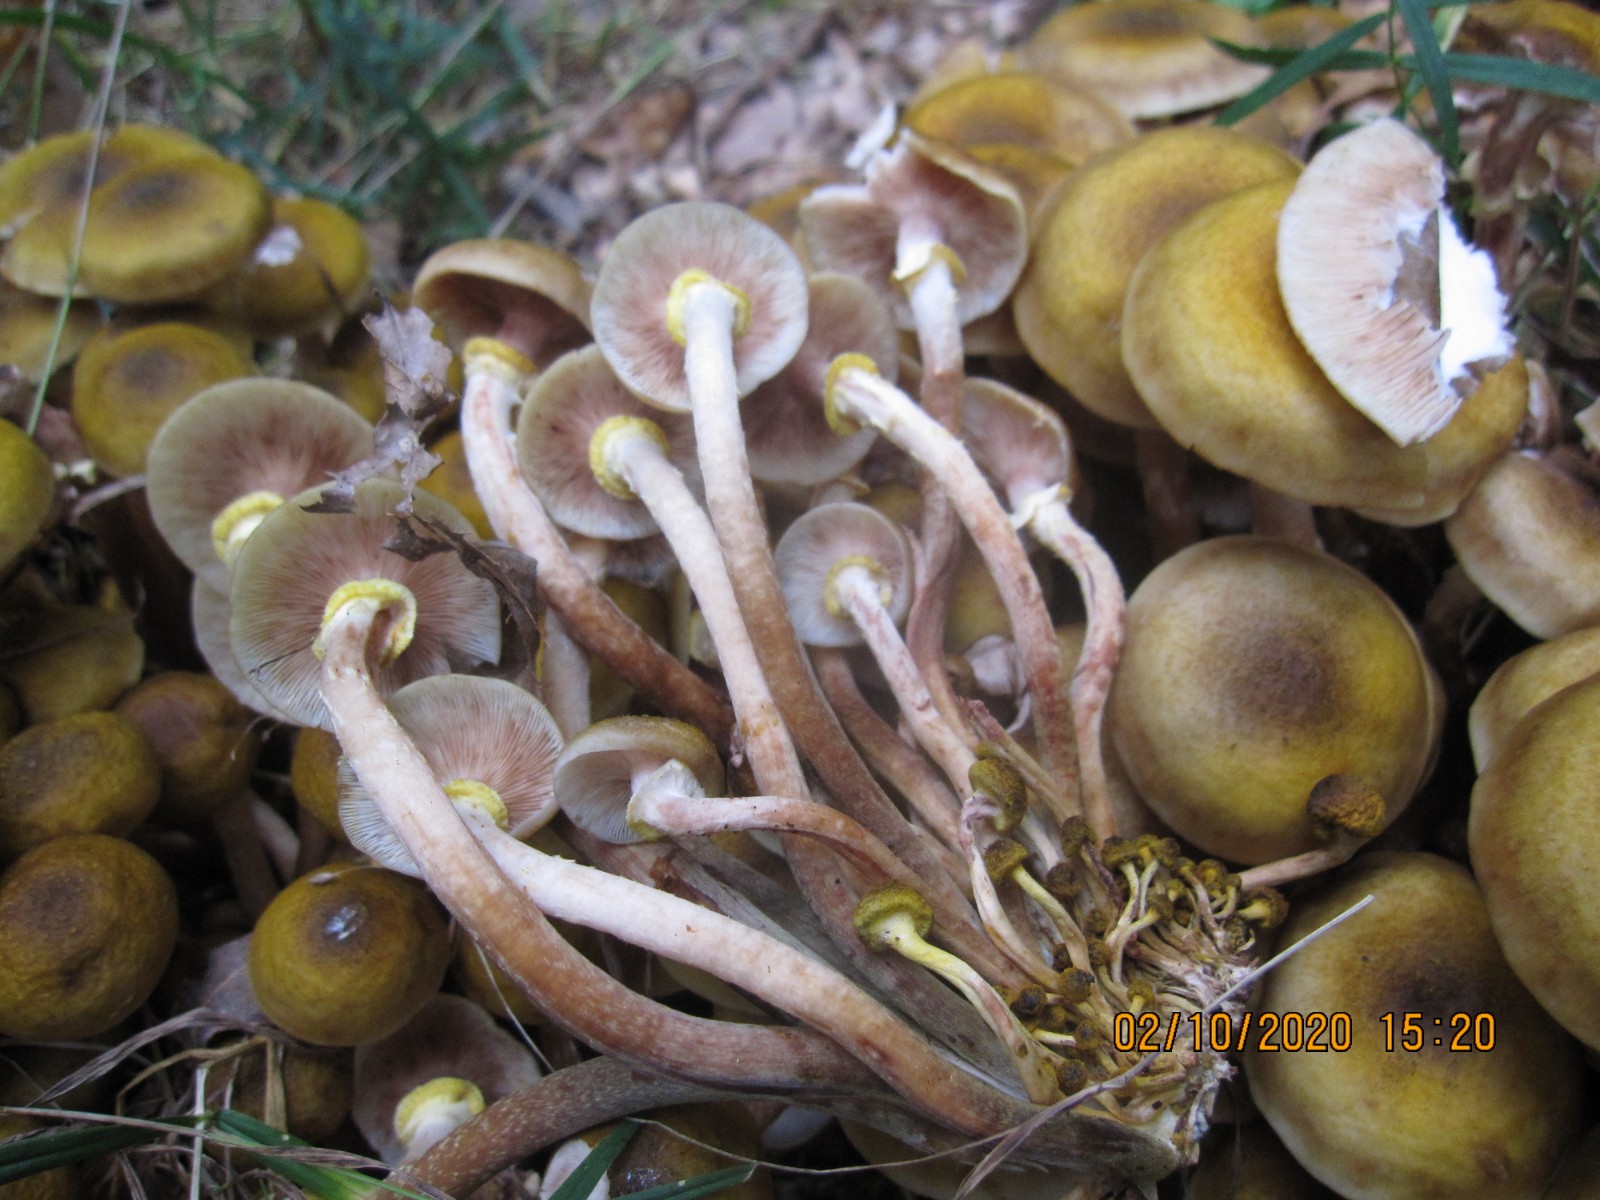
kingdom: Fungi
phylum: Basidiomycota
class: Agaricomycetes
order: Agaricales
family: Physalacriaceae
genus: Armillaria
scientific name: Armillaria mellea
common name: ægte honningsvamp
